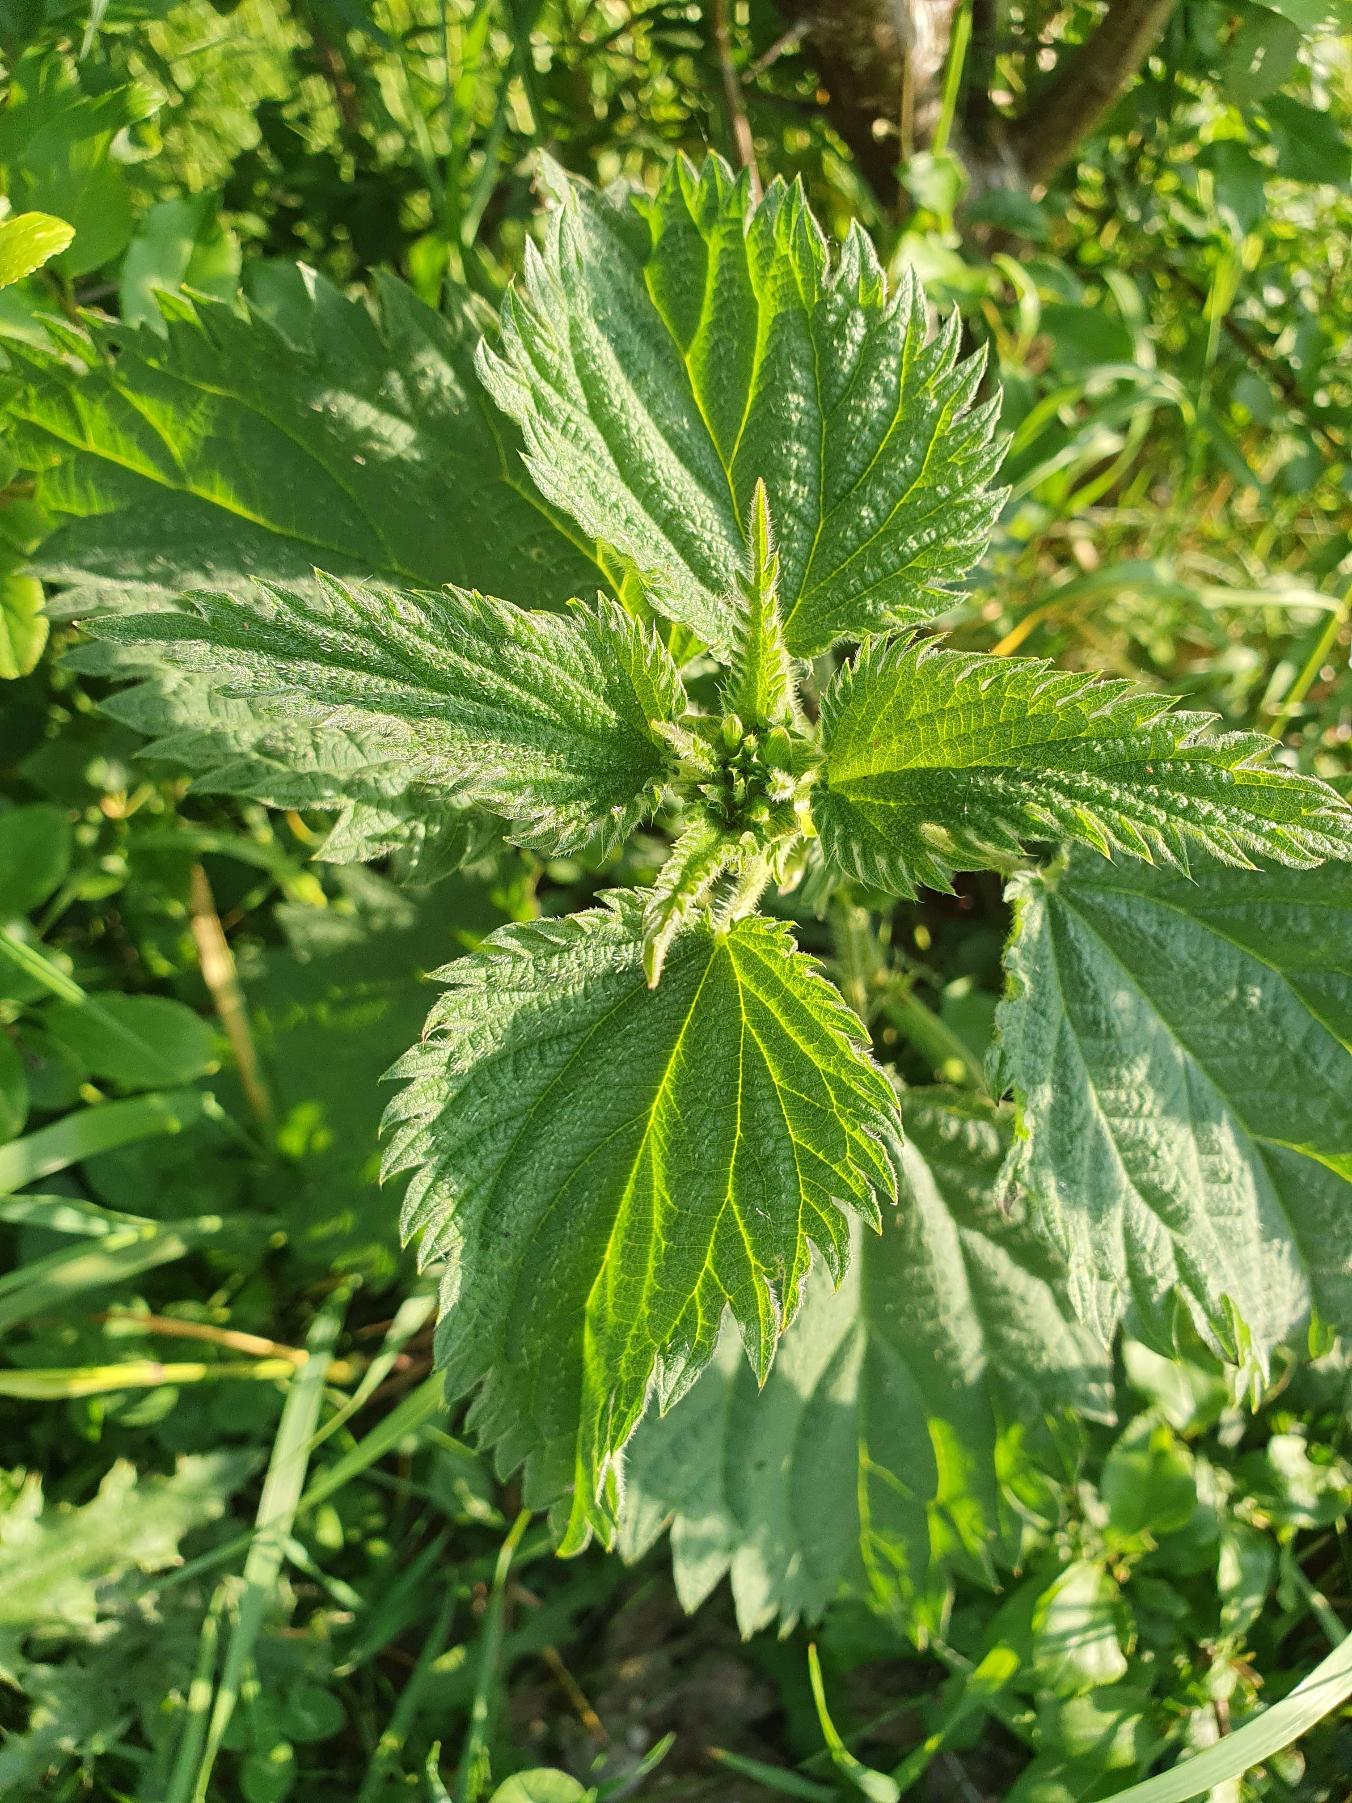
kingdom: Plantae
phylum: Tracheophyta
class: Magnoliopsida
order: Rosales
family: Urticaceae
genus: Urtica
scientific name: Urtica dioica
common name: Stor nælde
